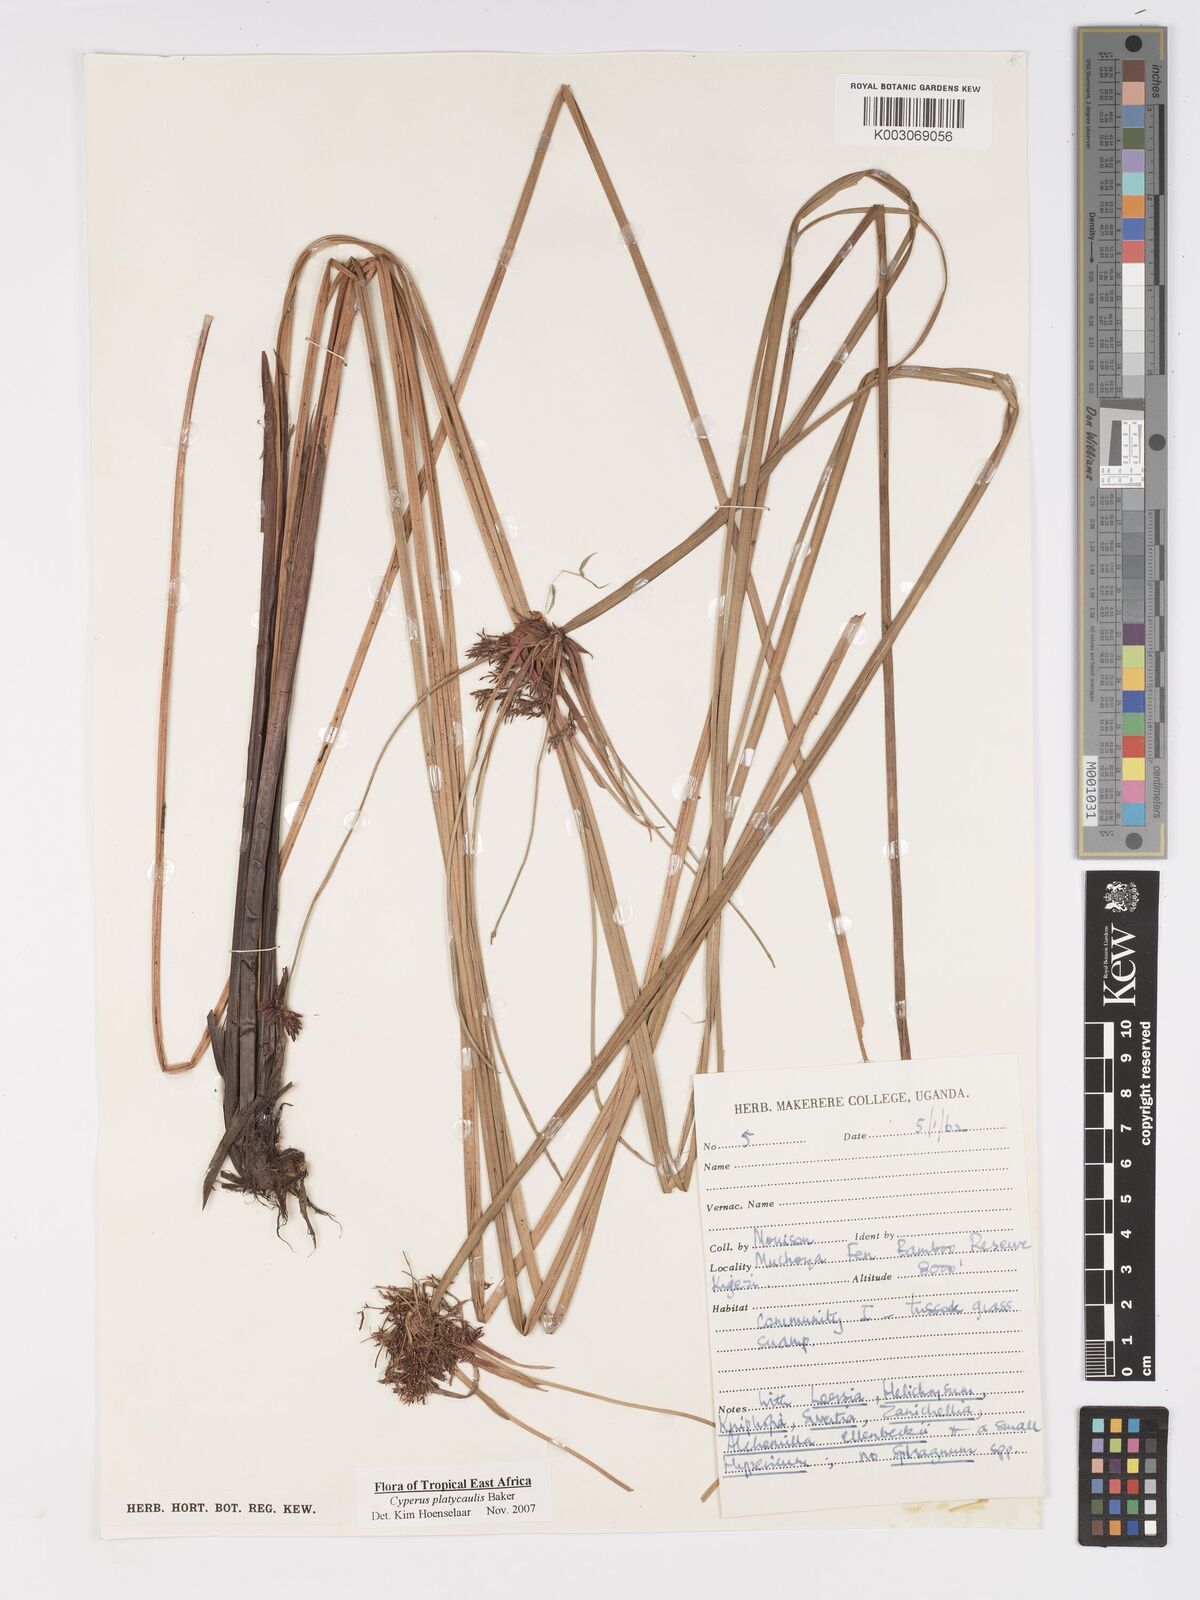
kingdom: Plantae
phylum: Tracheophyta
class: Liliopsida
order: Poales
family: Cyperaceae
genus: Cyperus
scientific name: Cyperus platycaulis
